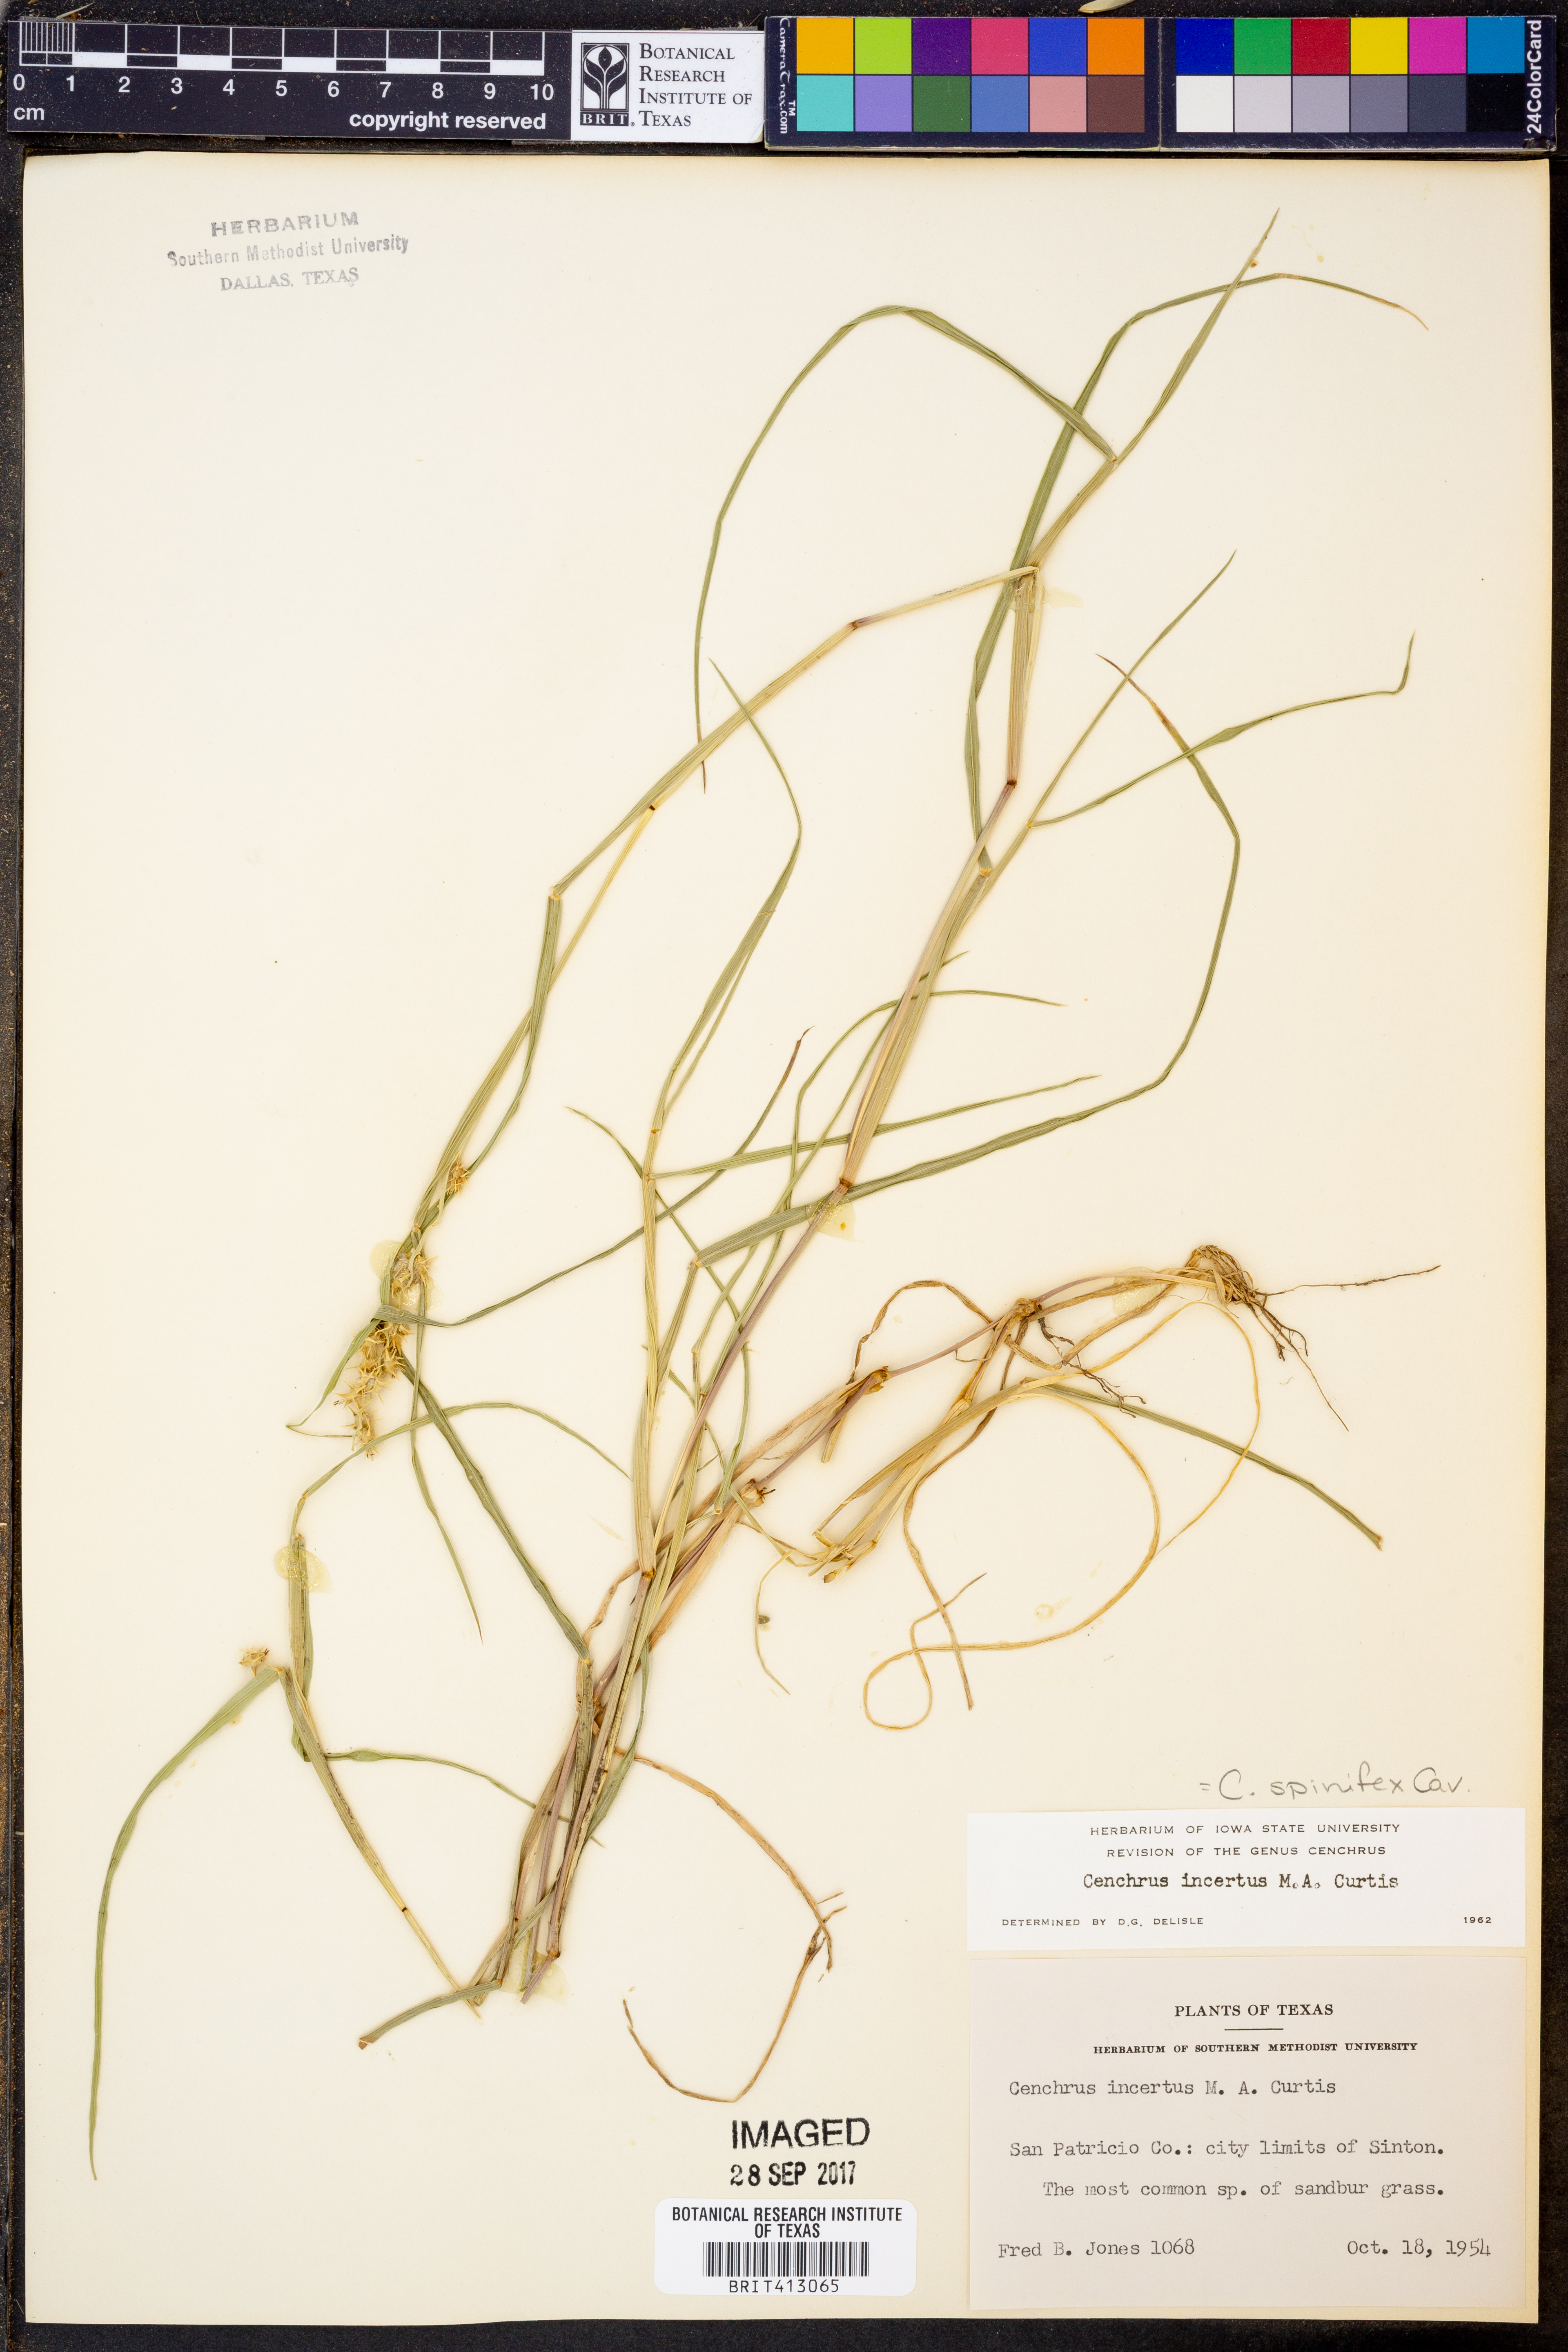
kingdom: Plantae
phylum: Tracheophyta
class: Liliopsida
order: Poales
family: Poaceae
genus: Cenchrus
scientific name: Cenchrus spinifex
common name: Coast sandbur
